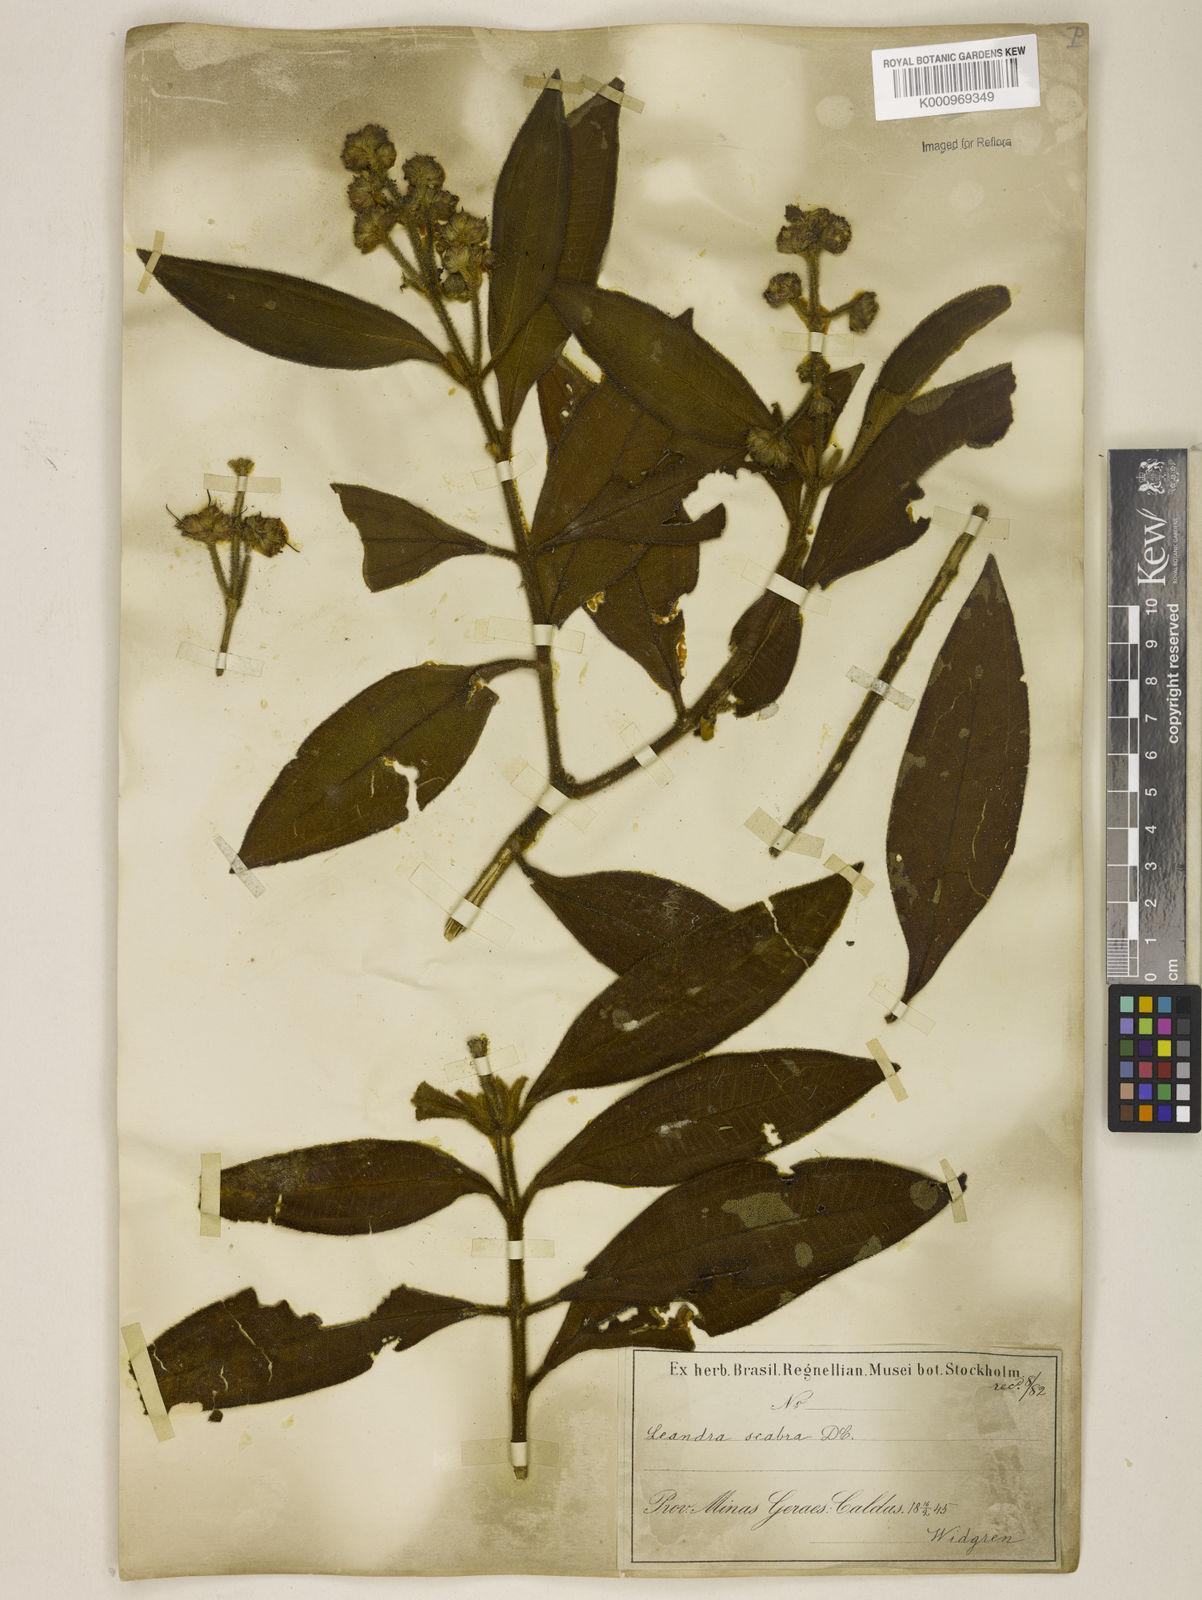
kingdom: Plantae
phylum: Tracheophyta
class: Magnoliopsida
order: Myrtales
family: Melastomataceae
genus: Miconia
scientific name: Miconia melastomoides
